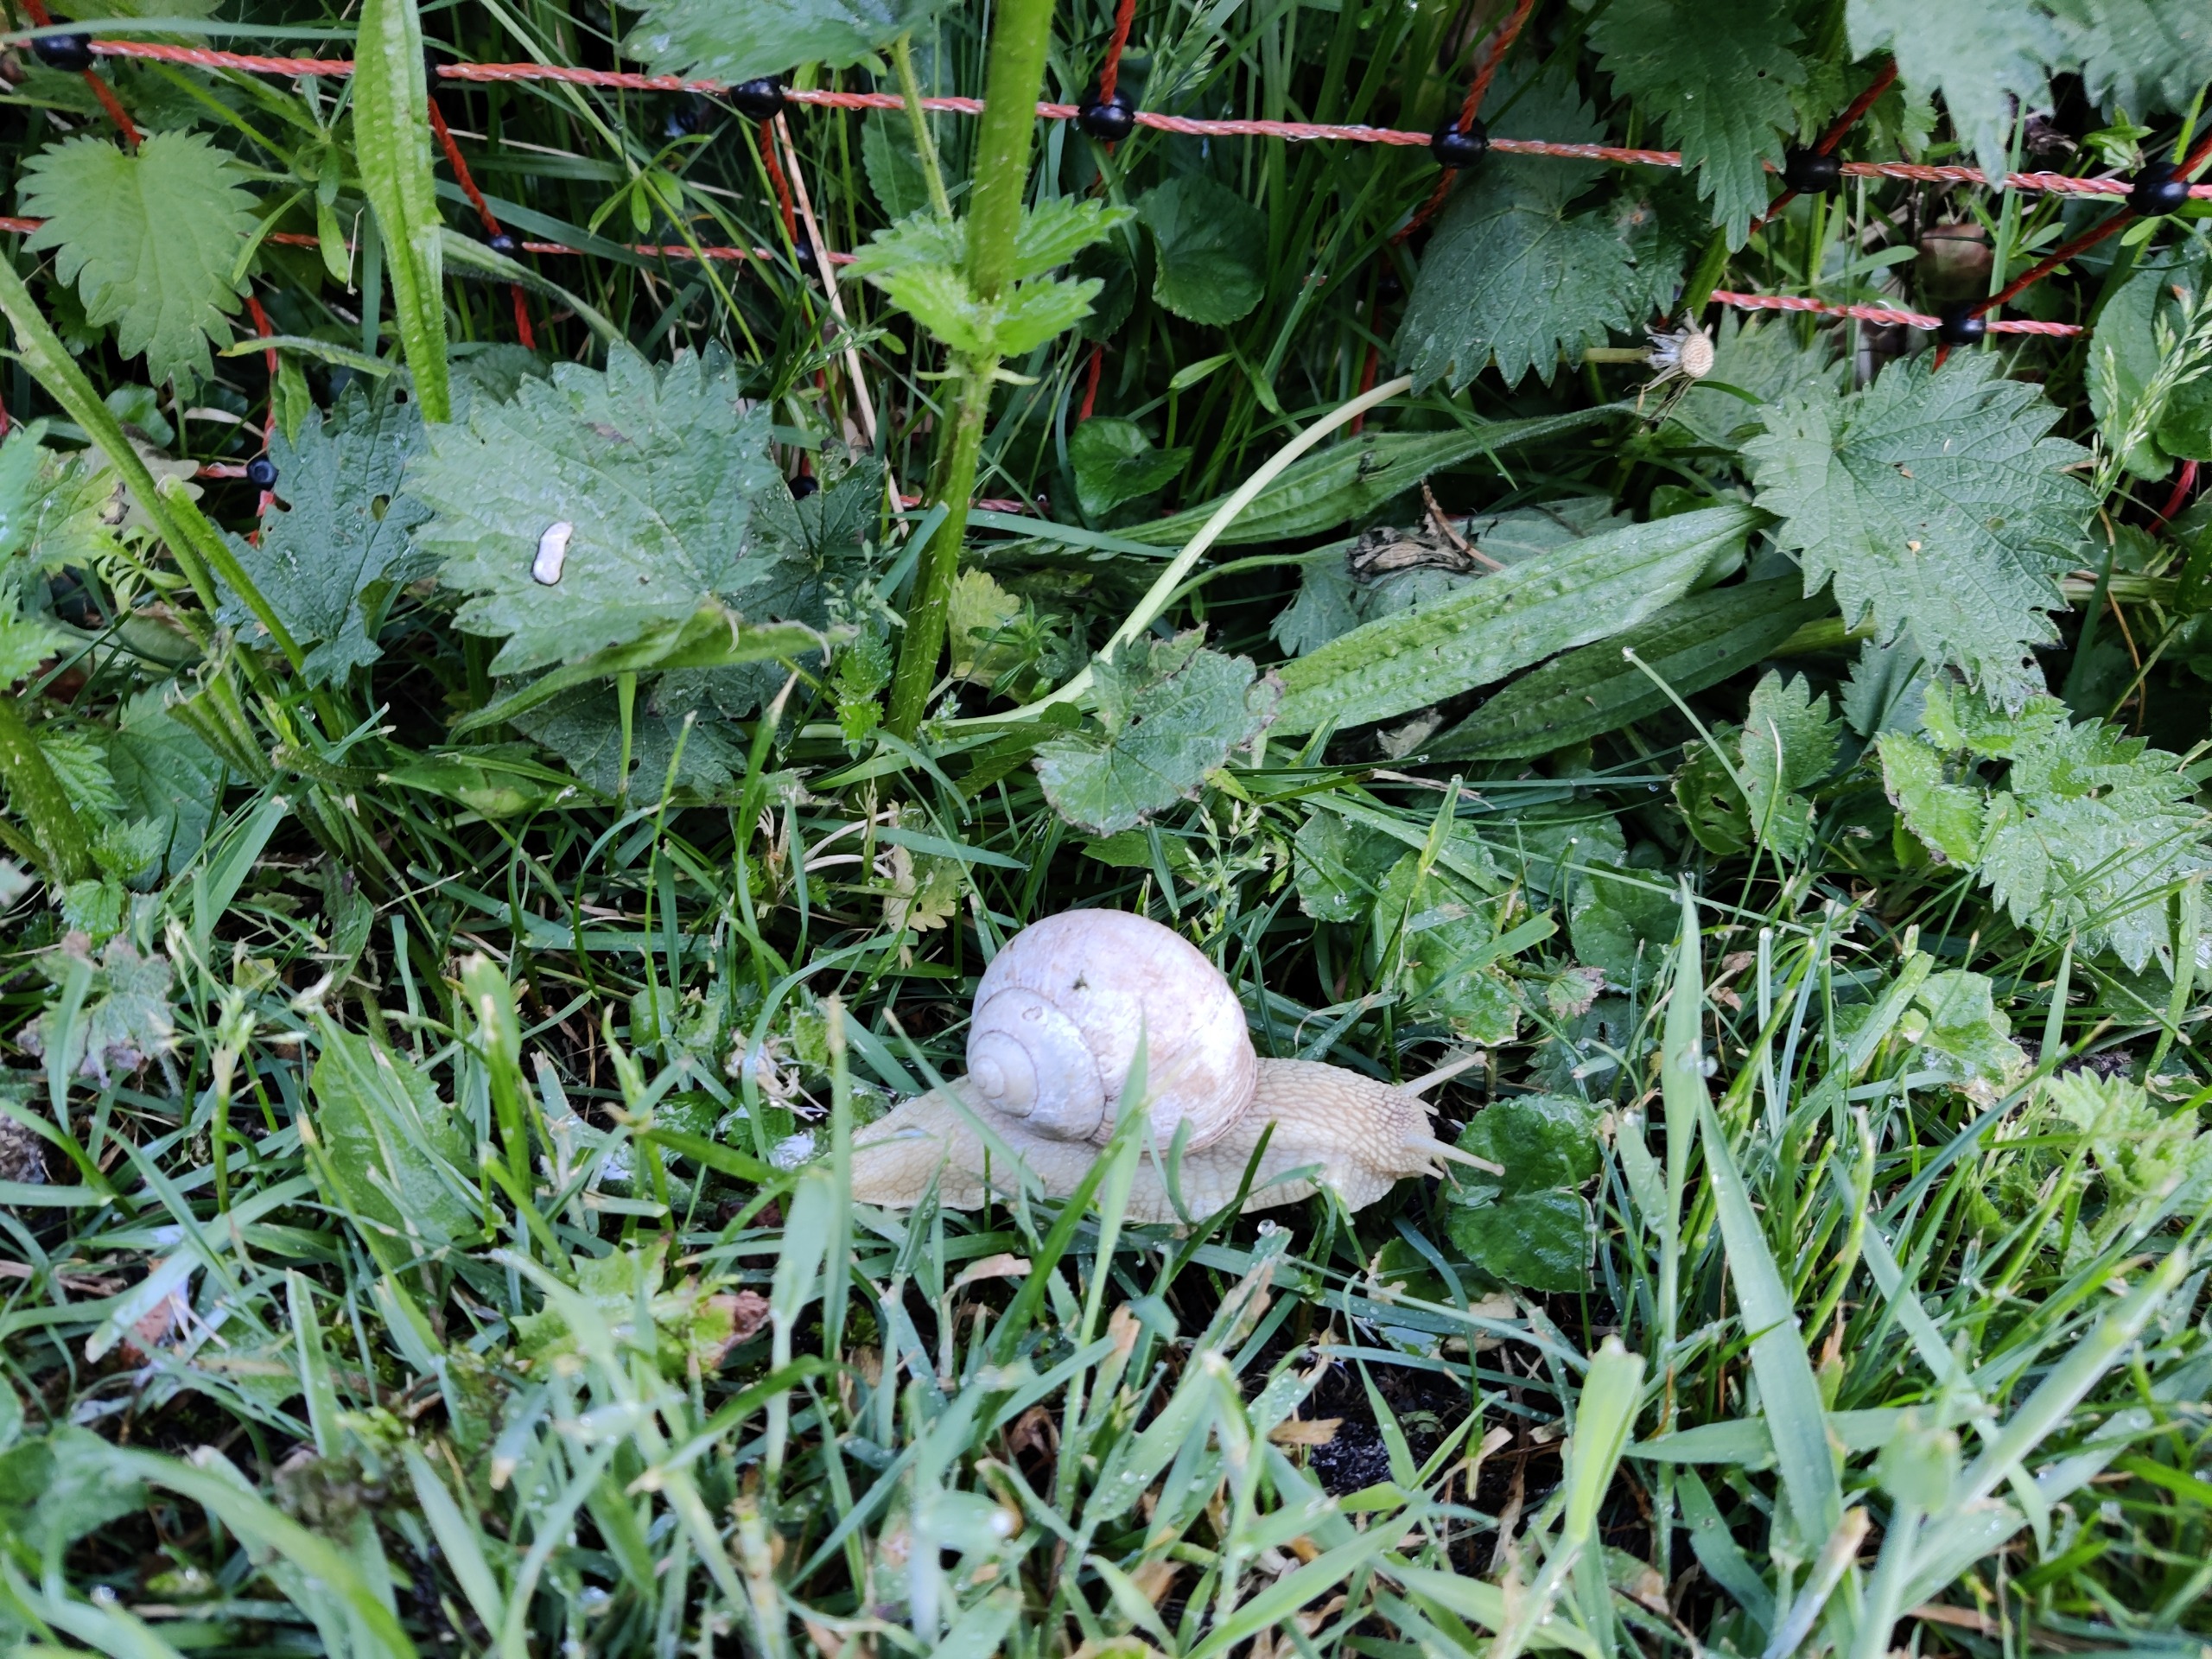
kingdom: Animalia
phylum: Mollusca
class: Gastropoda
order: Stylommatophora
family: Helicidae
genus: Helix
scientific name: Helix pomatia
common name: Vinbjergsnegl
